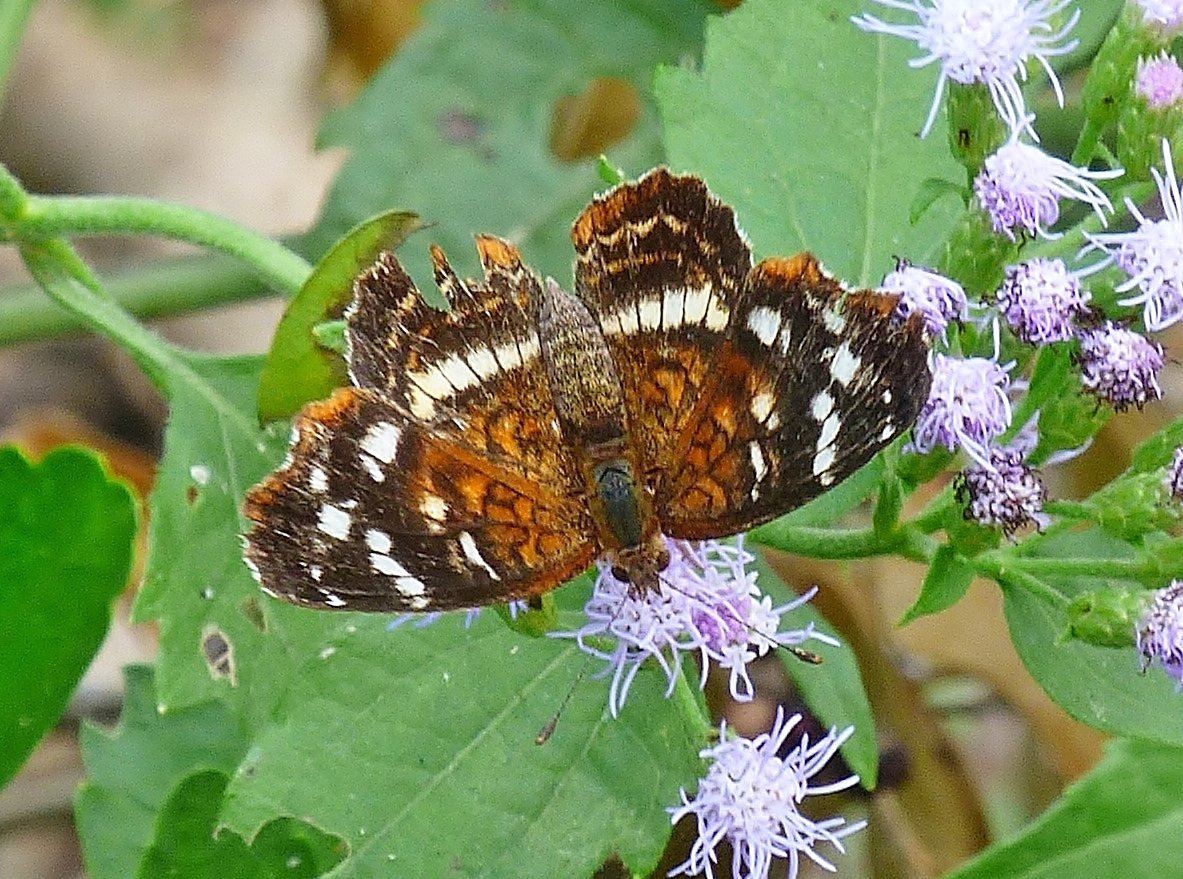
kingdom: Animalia
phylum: Arthropoda
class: Insecta
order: Lepidoptera
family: Nymphalidae
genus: Anthanassa
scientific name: Anthanassa argentea
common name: Chestnut Crescent
